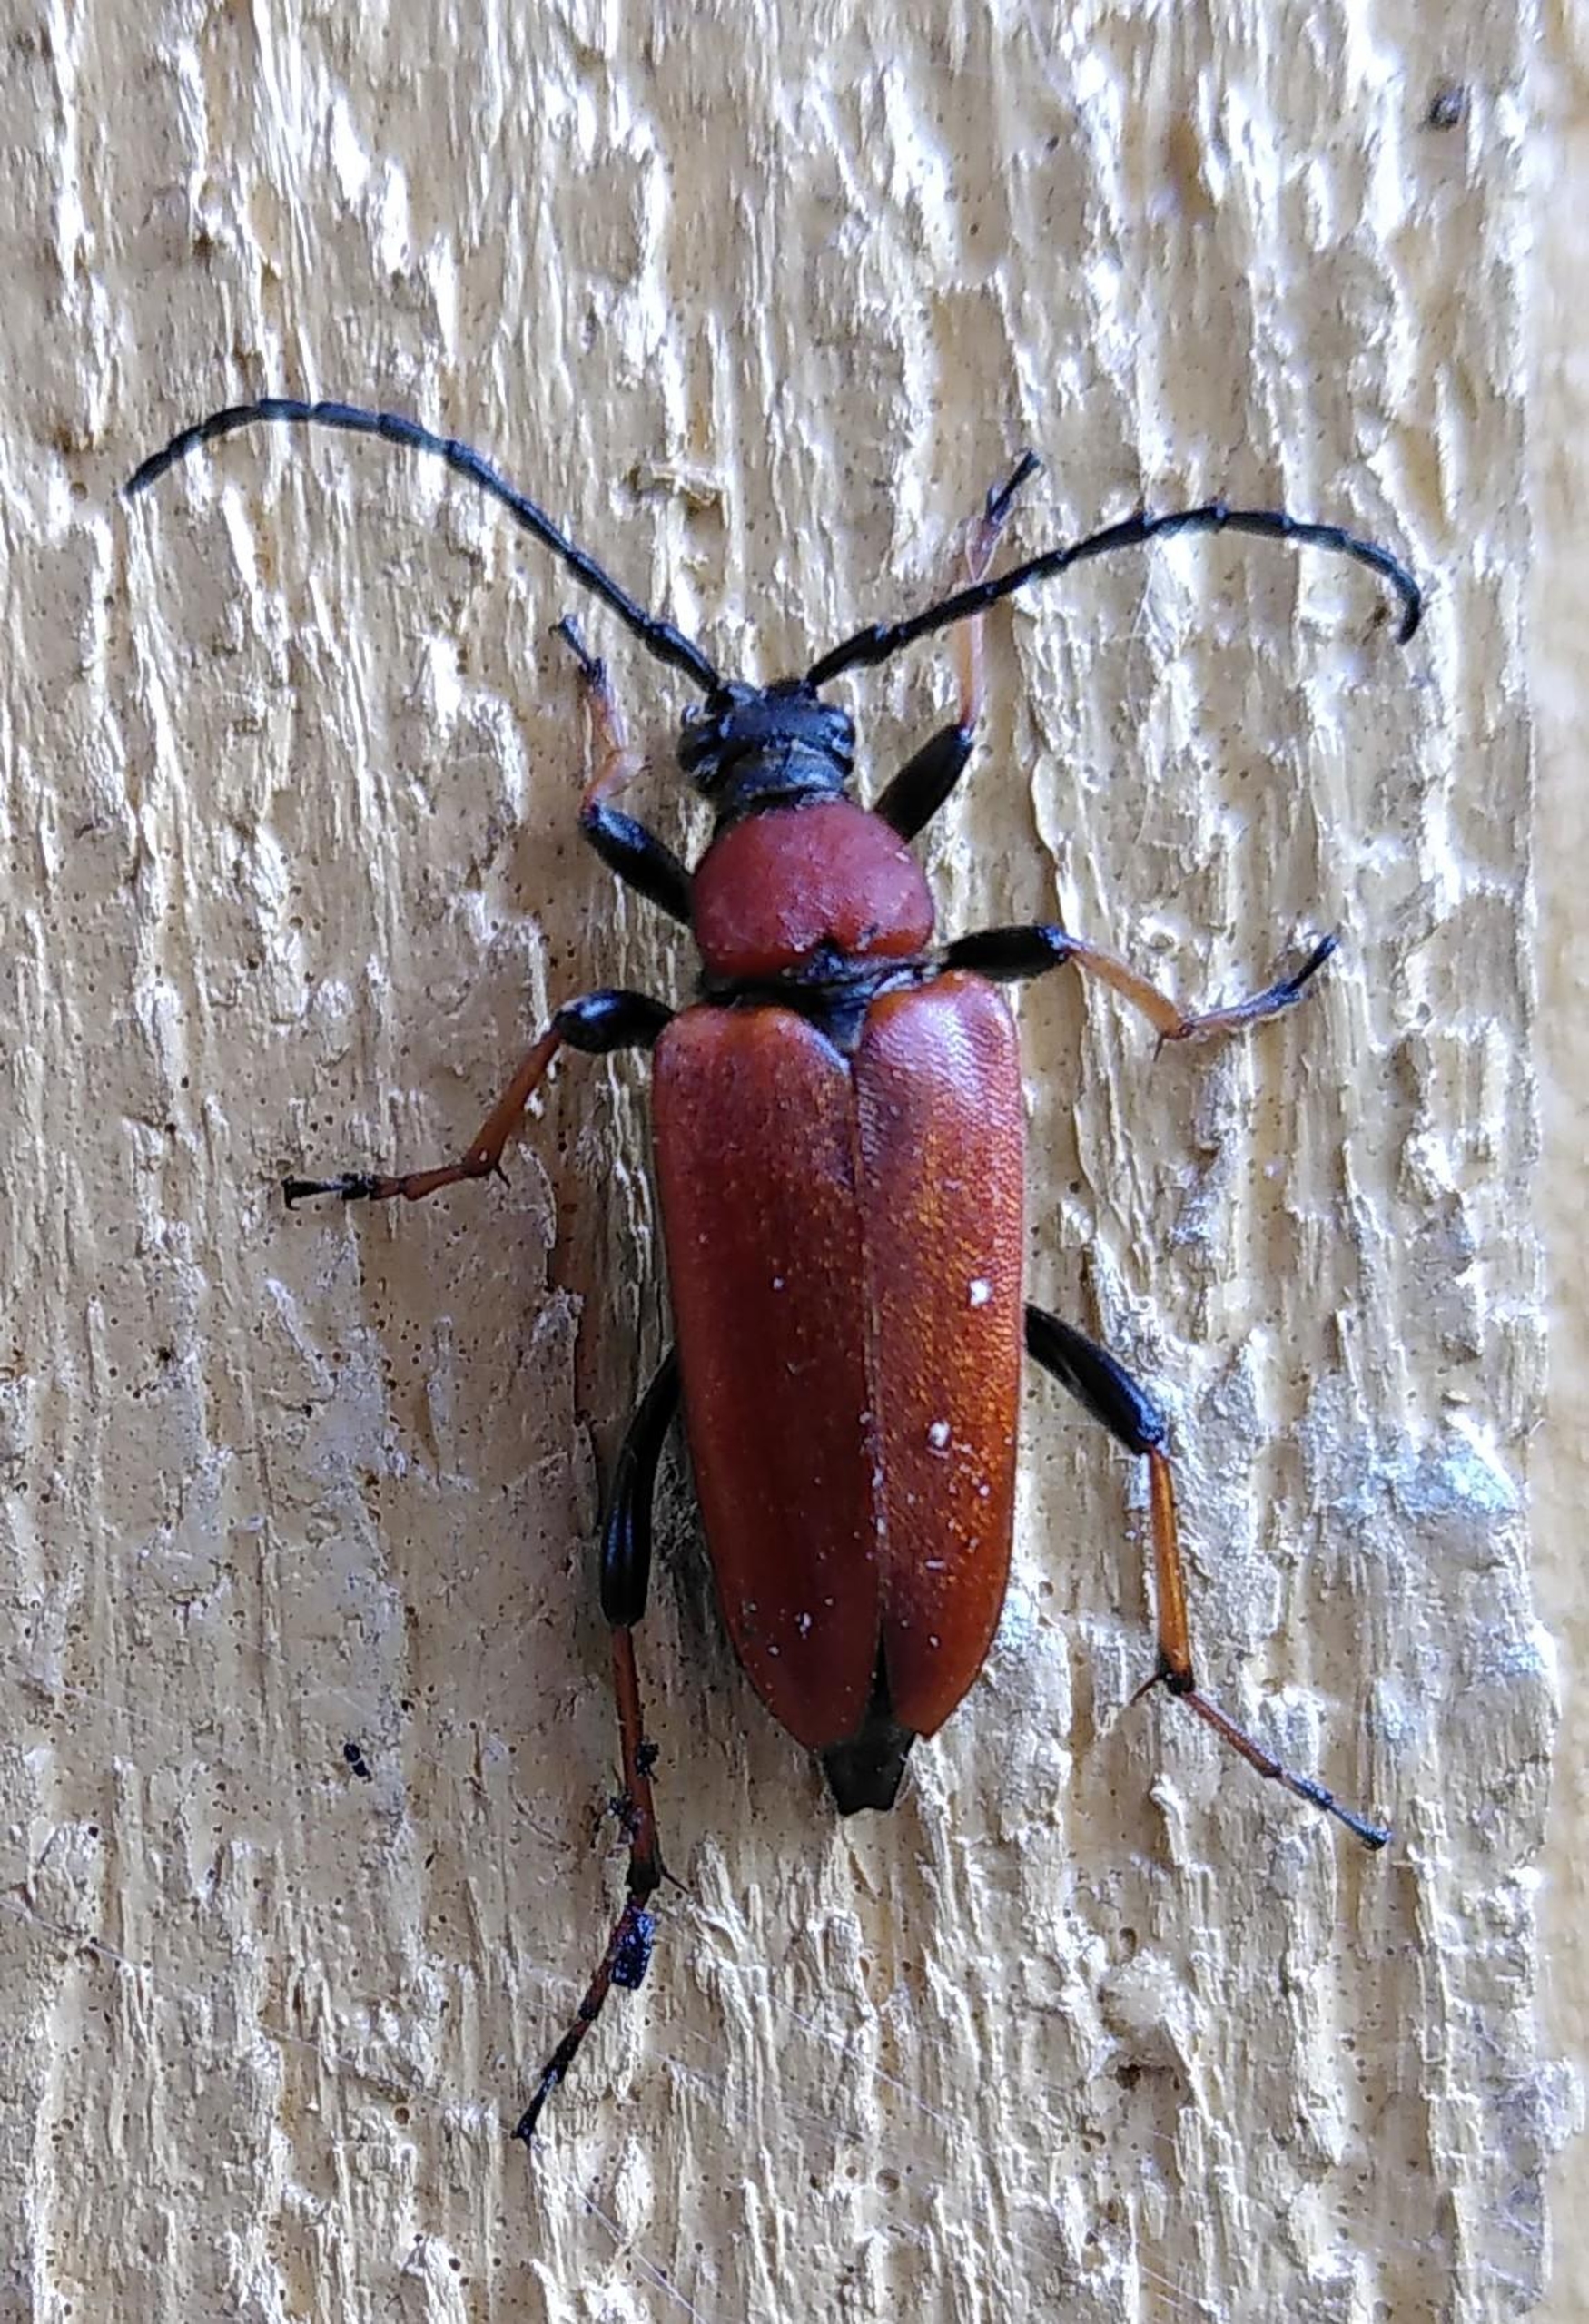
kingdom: Animalia
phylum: Arthropoda
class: Insecta
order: Coleoptera
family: Cerambycidae
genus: Stictoleptura
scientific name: Stictoleptura rubra
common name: Rød blomsterbuk
